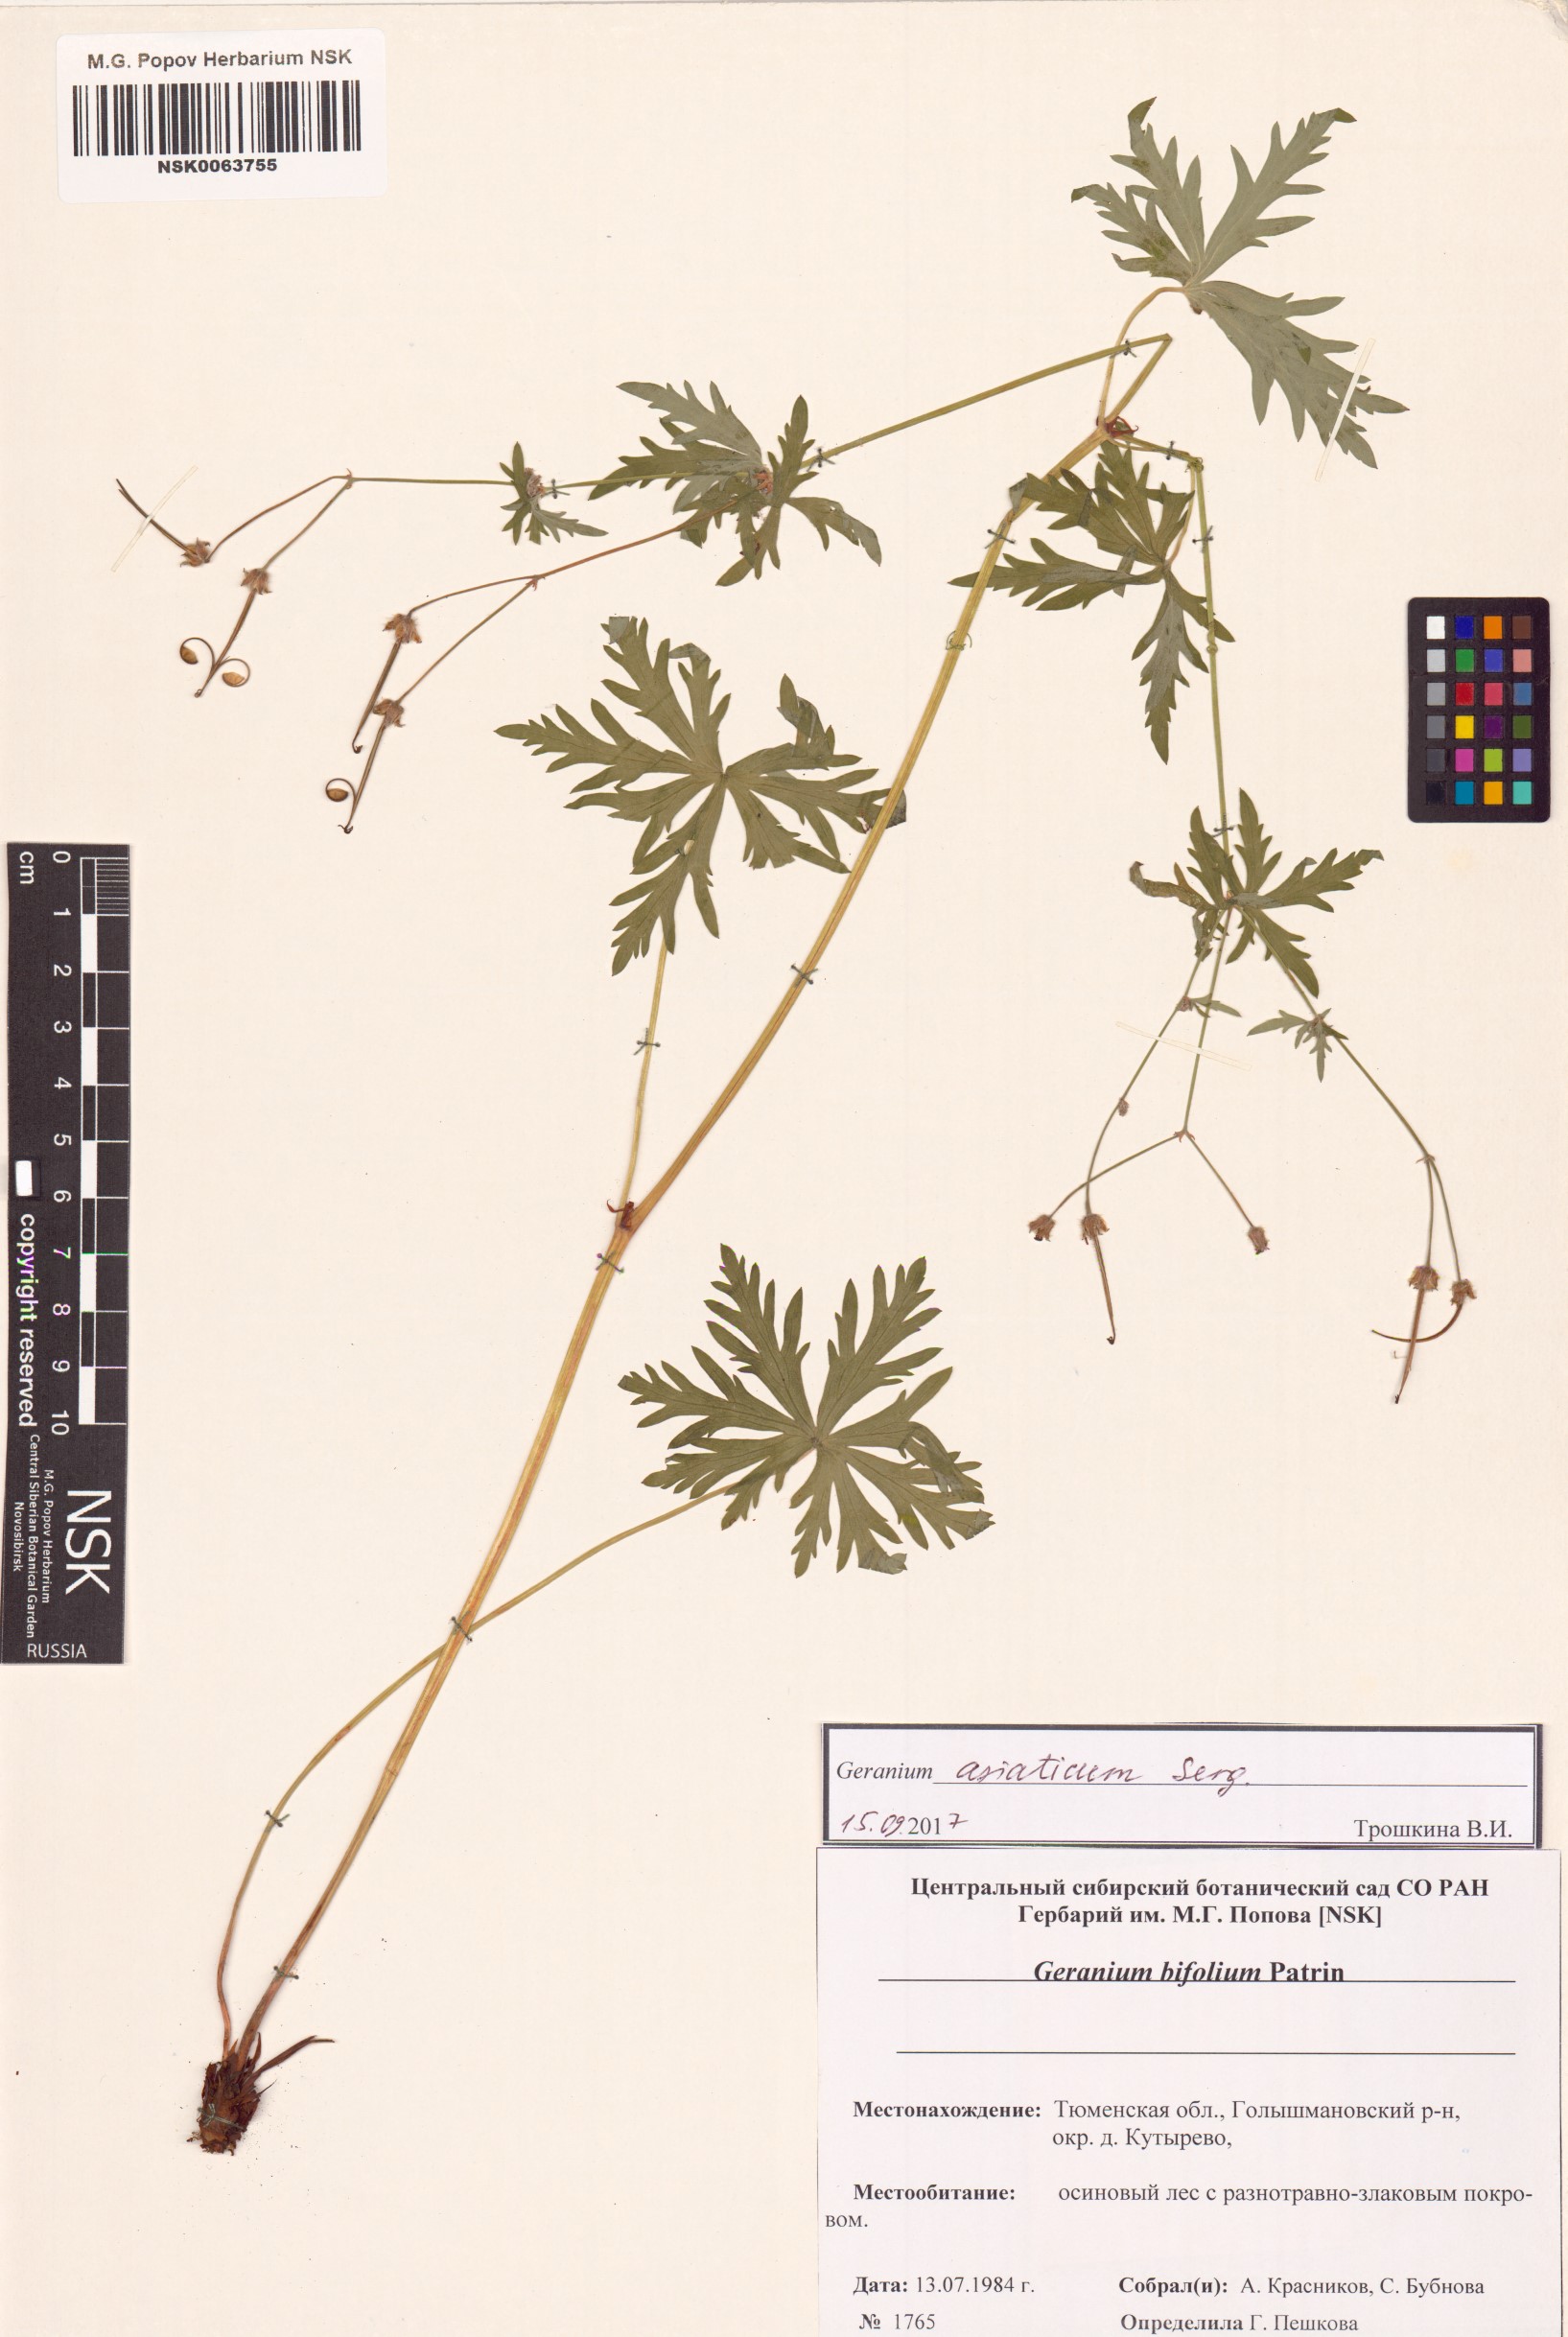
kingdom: Plantae
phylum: Tracheophyta
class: Magnoliopsida
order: Geraniales
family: Geraniaceae
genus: Geranium
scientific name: Geranium pseudosibiricum
